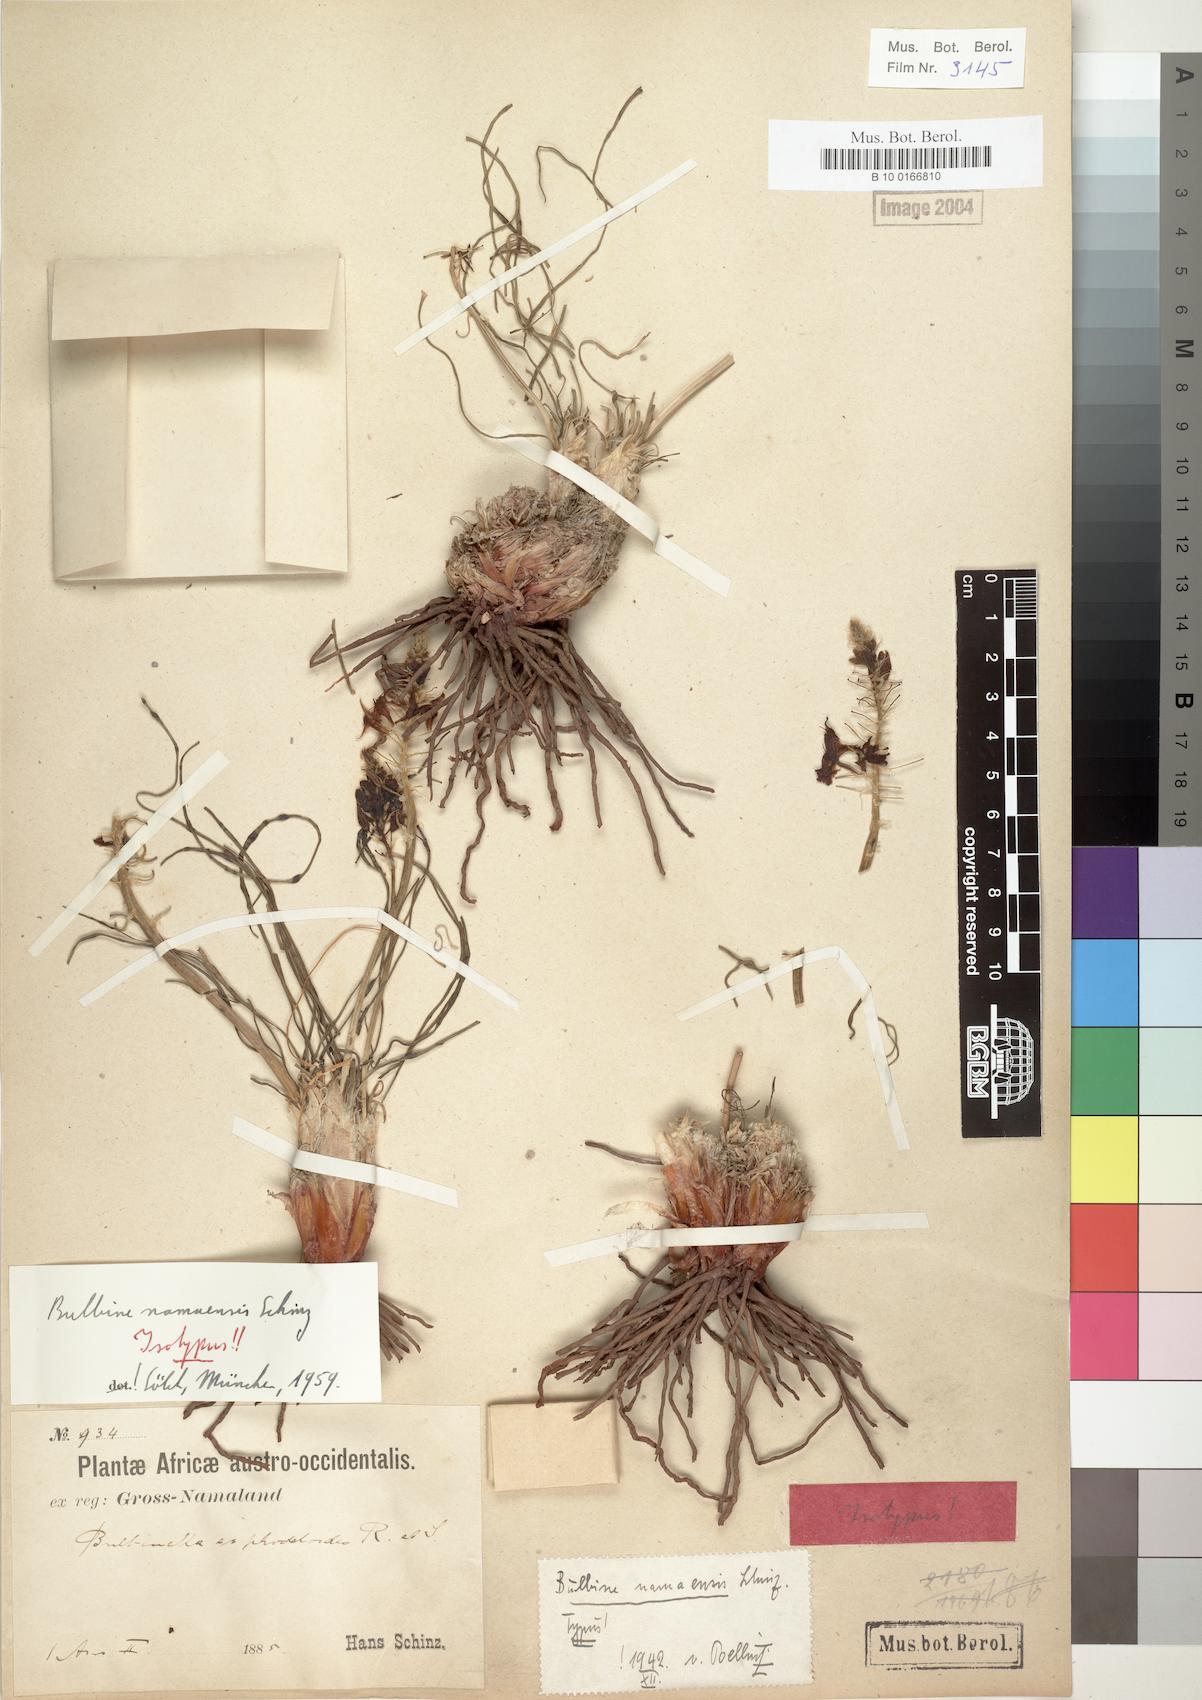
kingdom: Plantae
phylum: Tracheophyta
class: Liliopsida
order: Asparagales
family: Asphodelaceae
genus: Bulbine
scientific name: Bulbine namaensis
